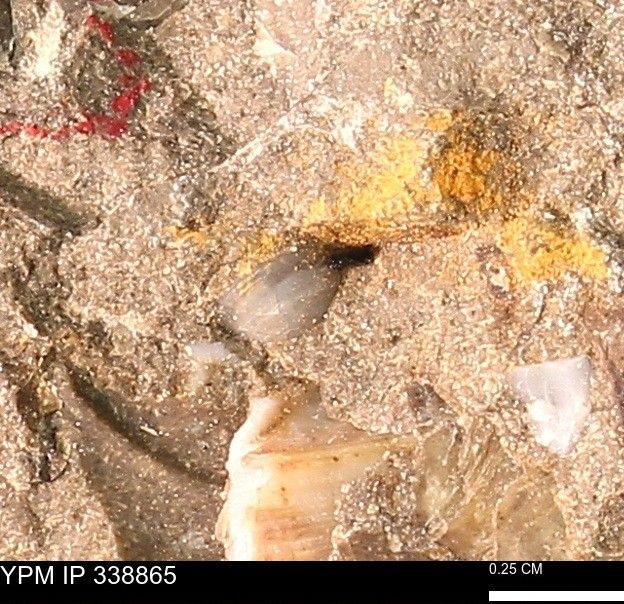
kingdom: Animalia
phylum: Mollusca
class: Bivalvia
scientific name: Bivalvia
